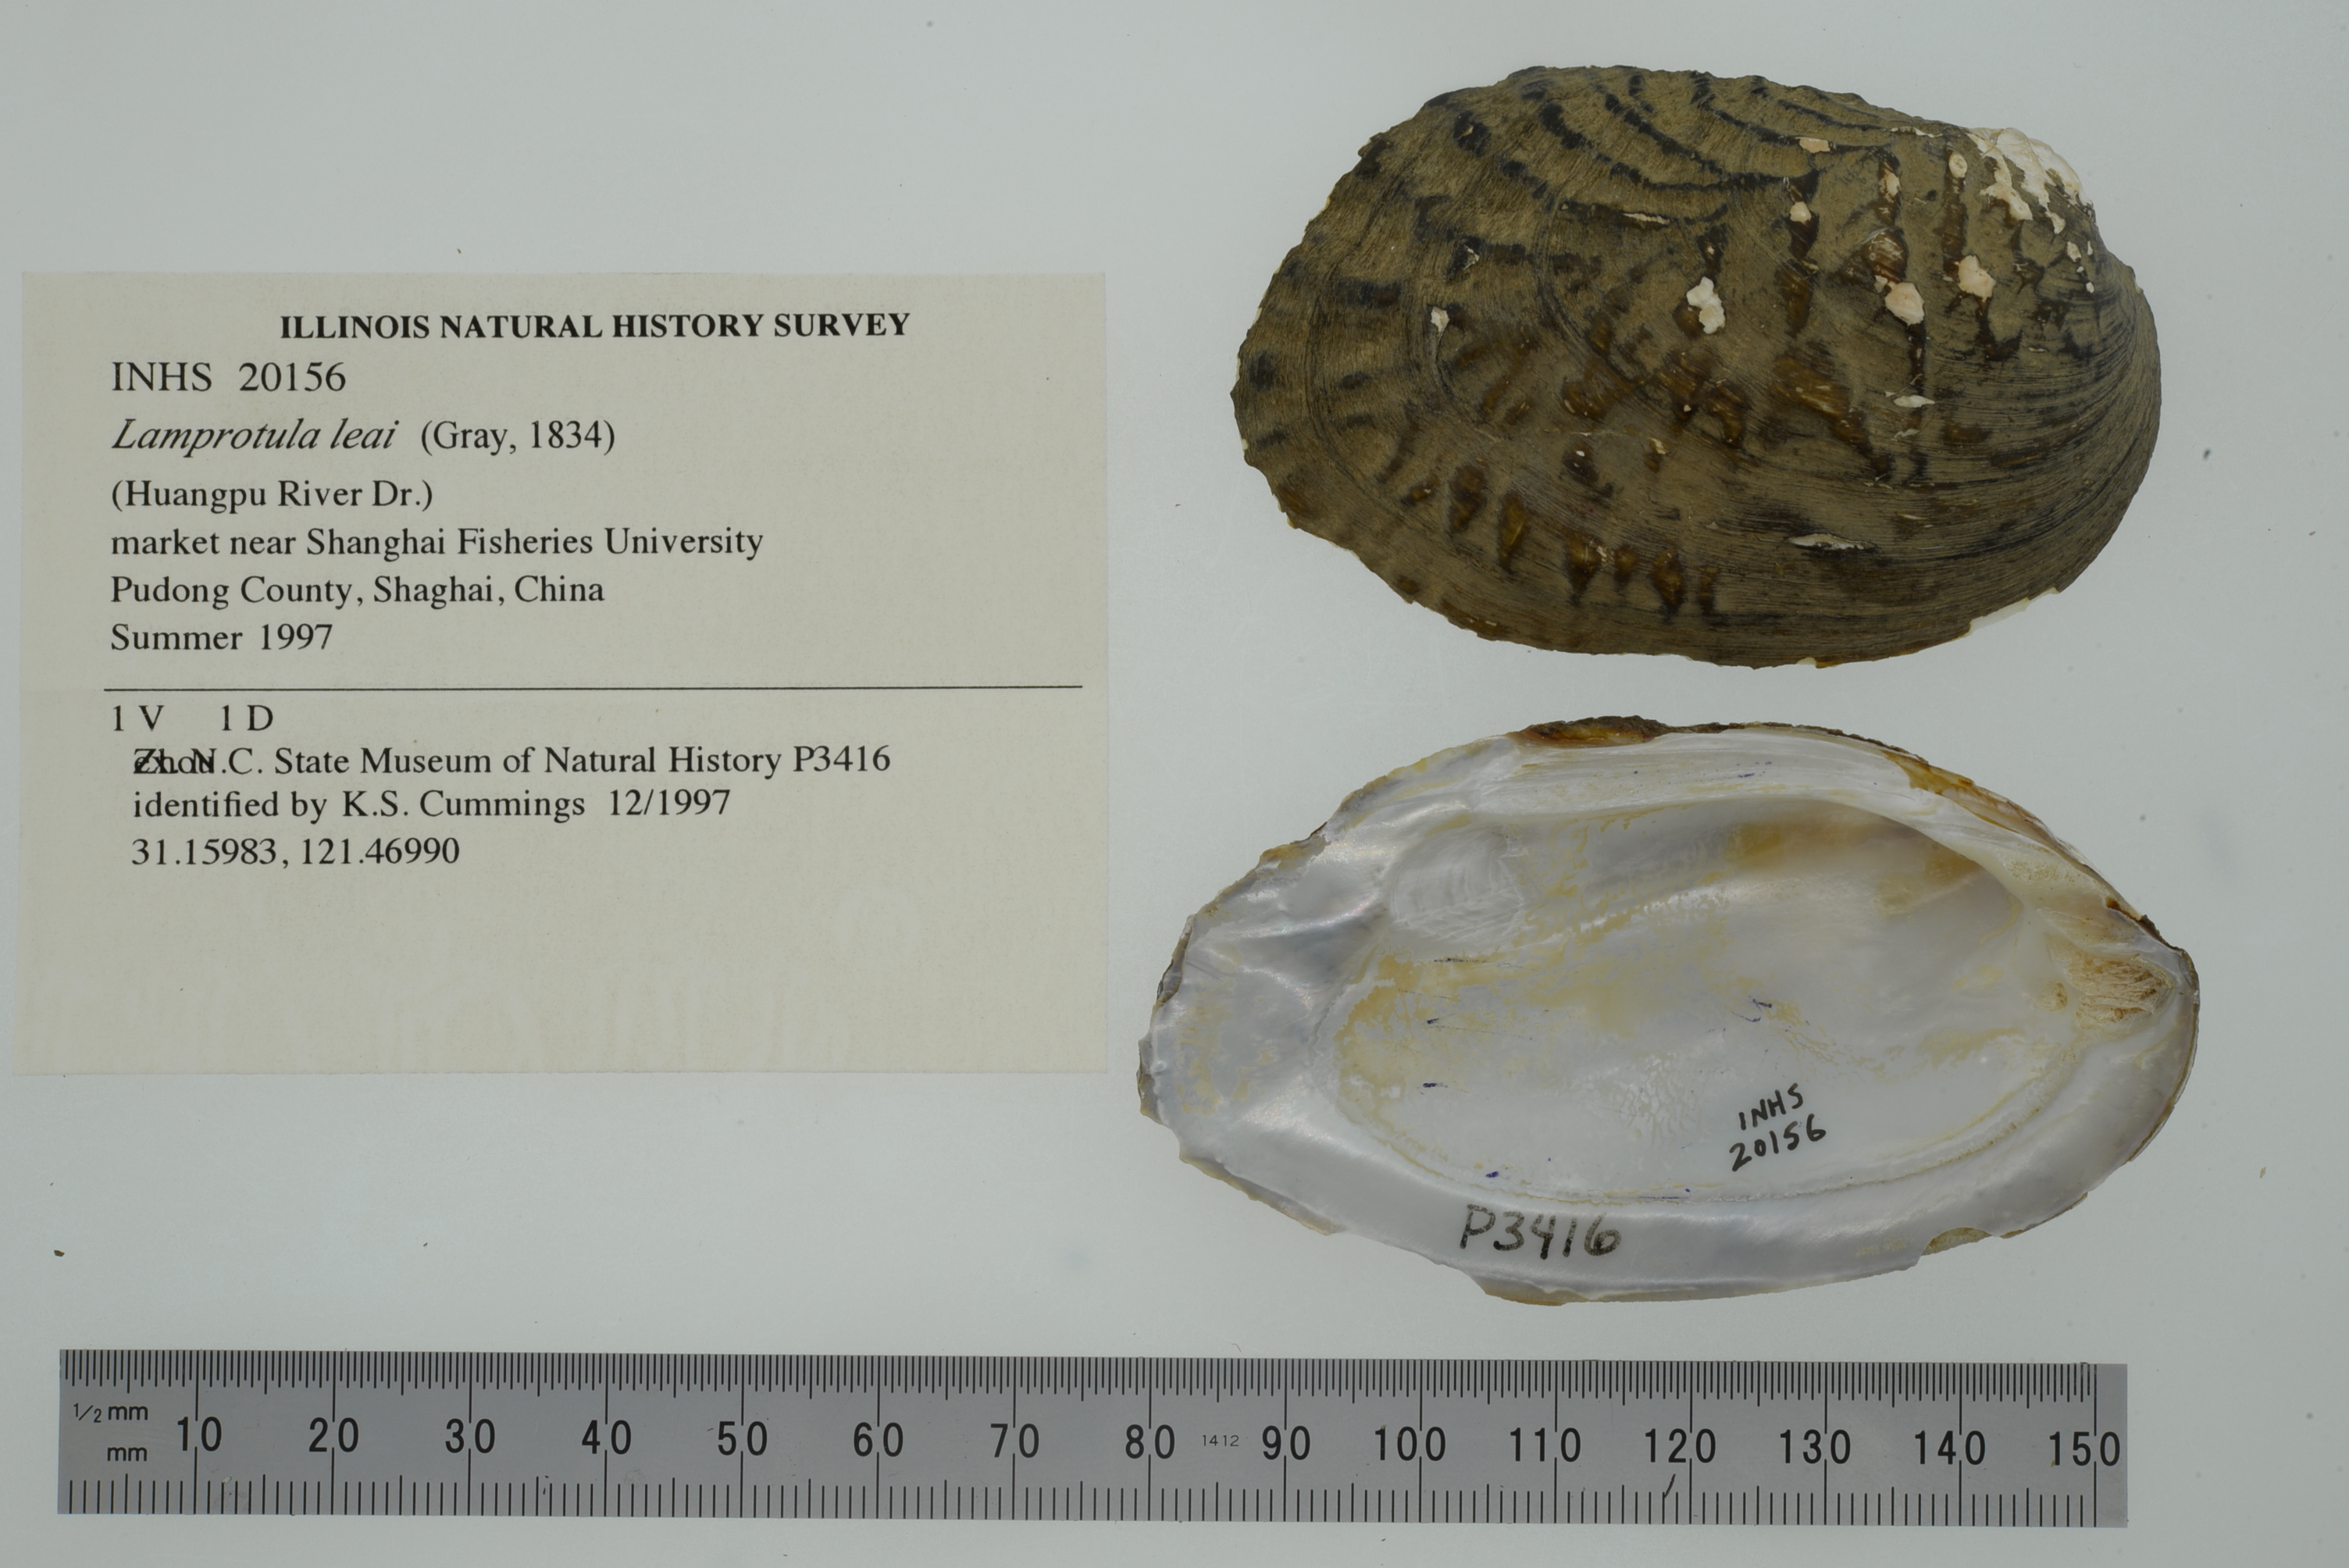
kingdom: Animalia
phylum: Mollusca
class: Bivalvia
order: Unionida
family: Unionidae
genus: Lamprotula
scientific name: Lamprotula leaii
